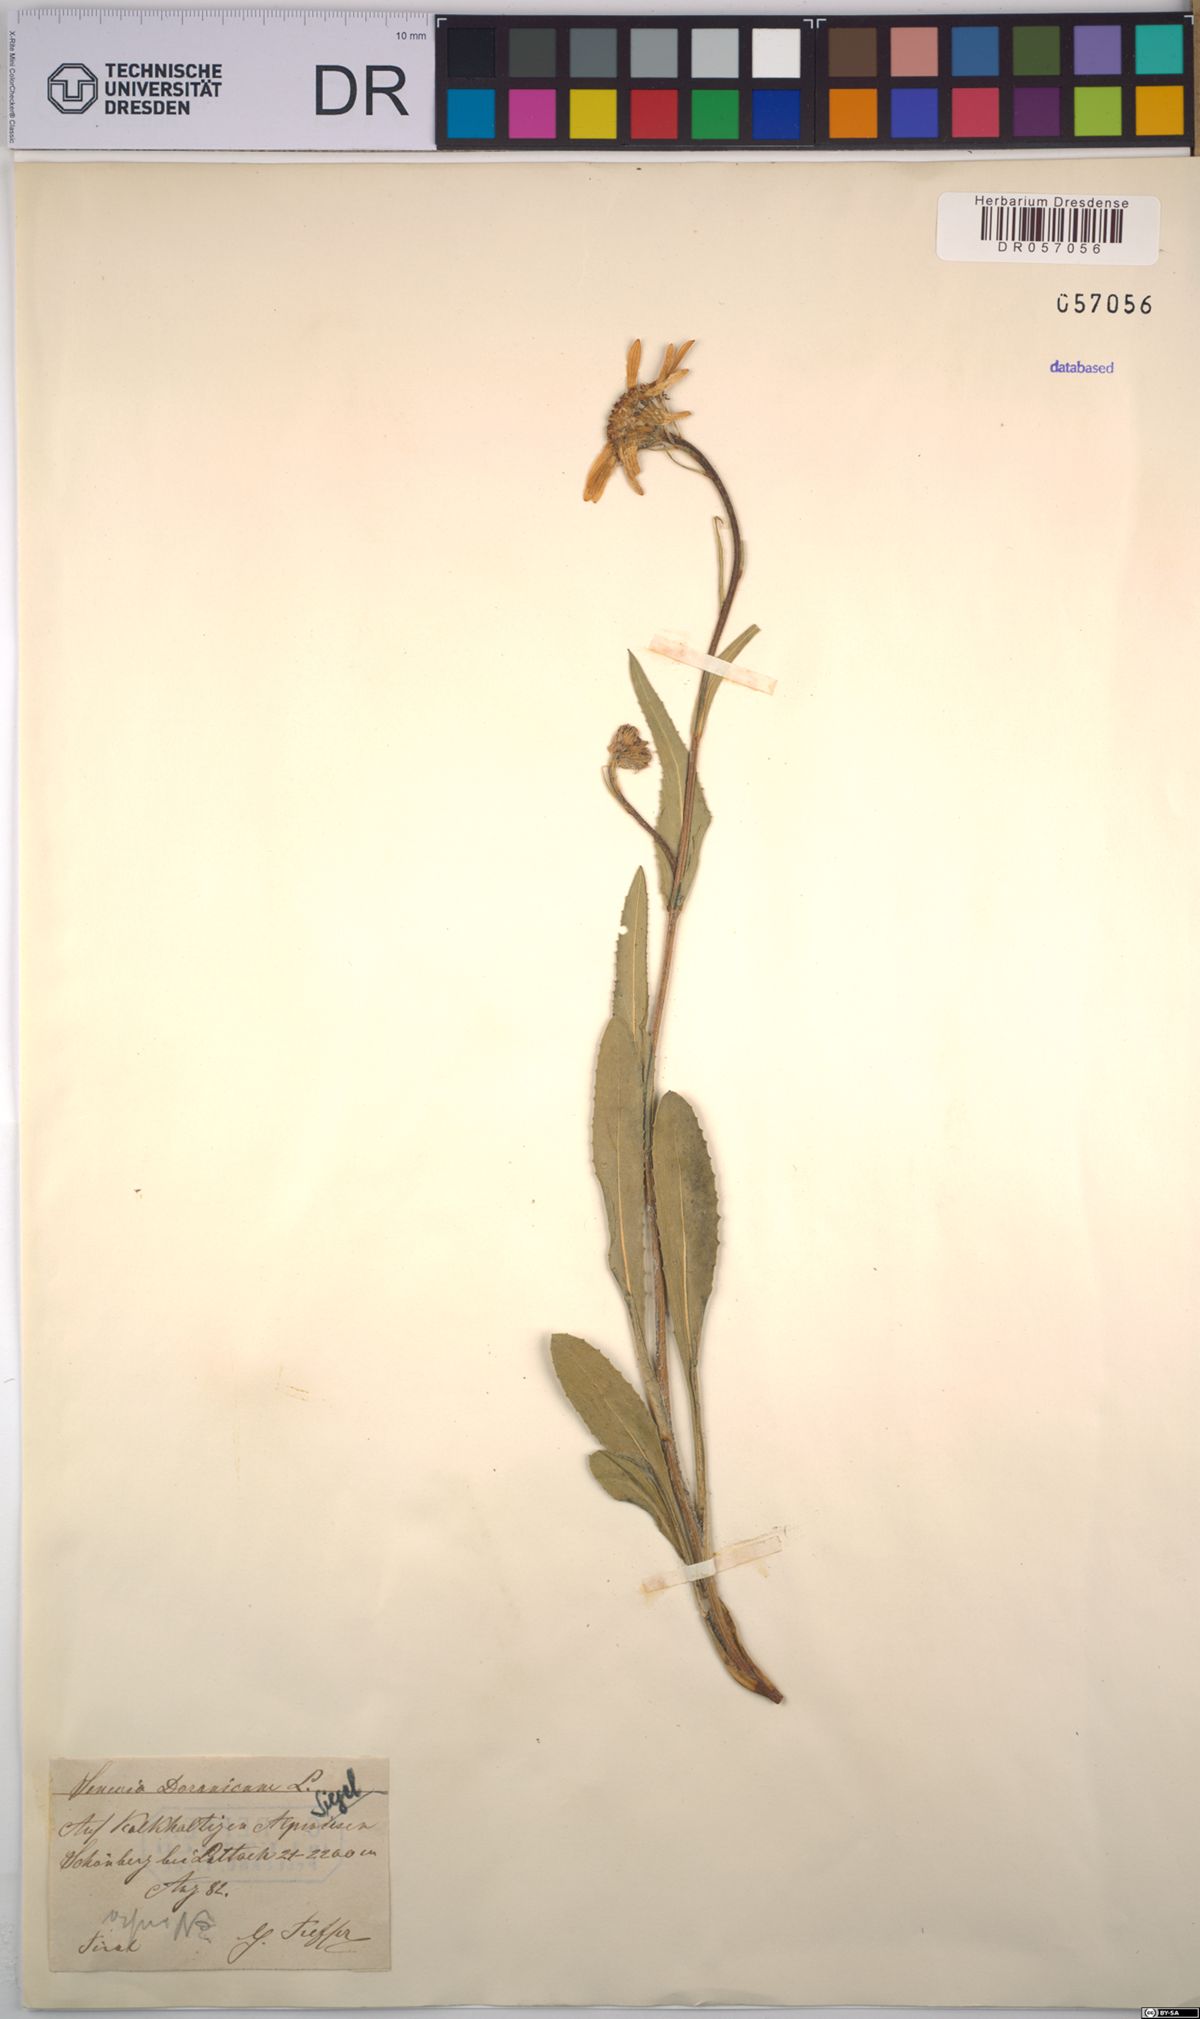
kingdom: Plantae
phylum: Tracheophyta
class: Magnoliopsida
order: Asterales
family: Asteraceae
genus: Senecio
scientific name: Senecio doronicum
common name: Chamois ragwort
